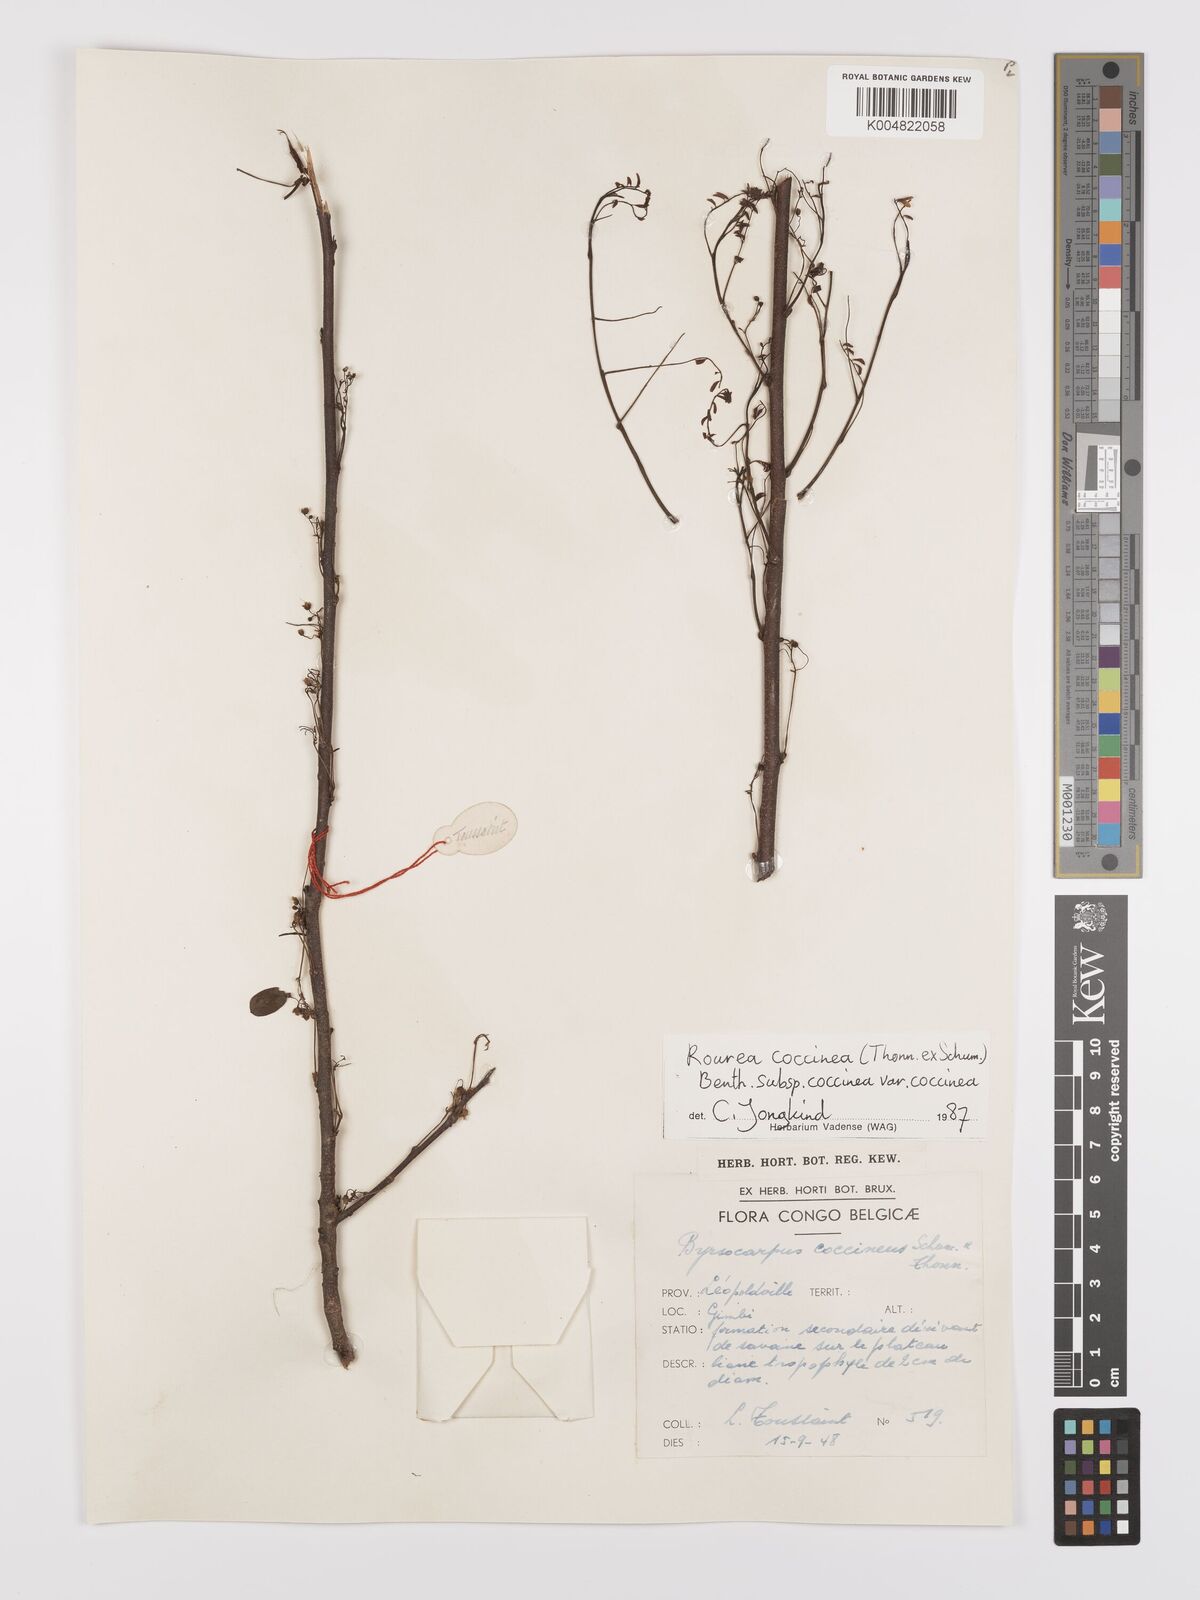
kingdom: Plantae
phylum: Tracheophyta
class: Magnoliopsida
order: Oxalidales
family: Connaraceae
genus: Rourea
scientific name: Rourea coccinea
